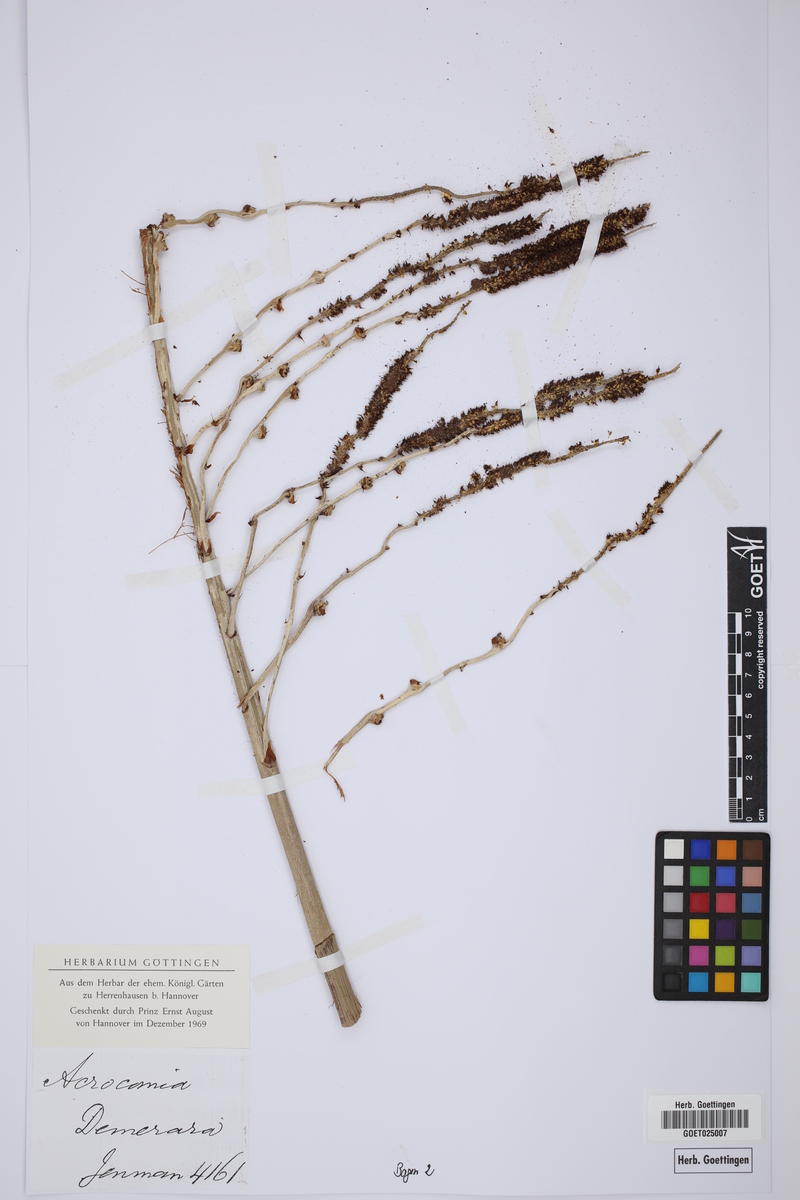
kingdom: Plantae
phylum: Tracheophyta
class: Liliopsida
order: Arecales
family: Arecaceae
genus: Acrocomia
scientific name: Acrocomia
